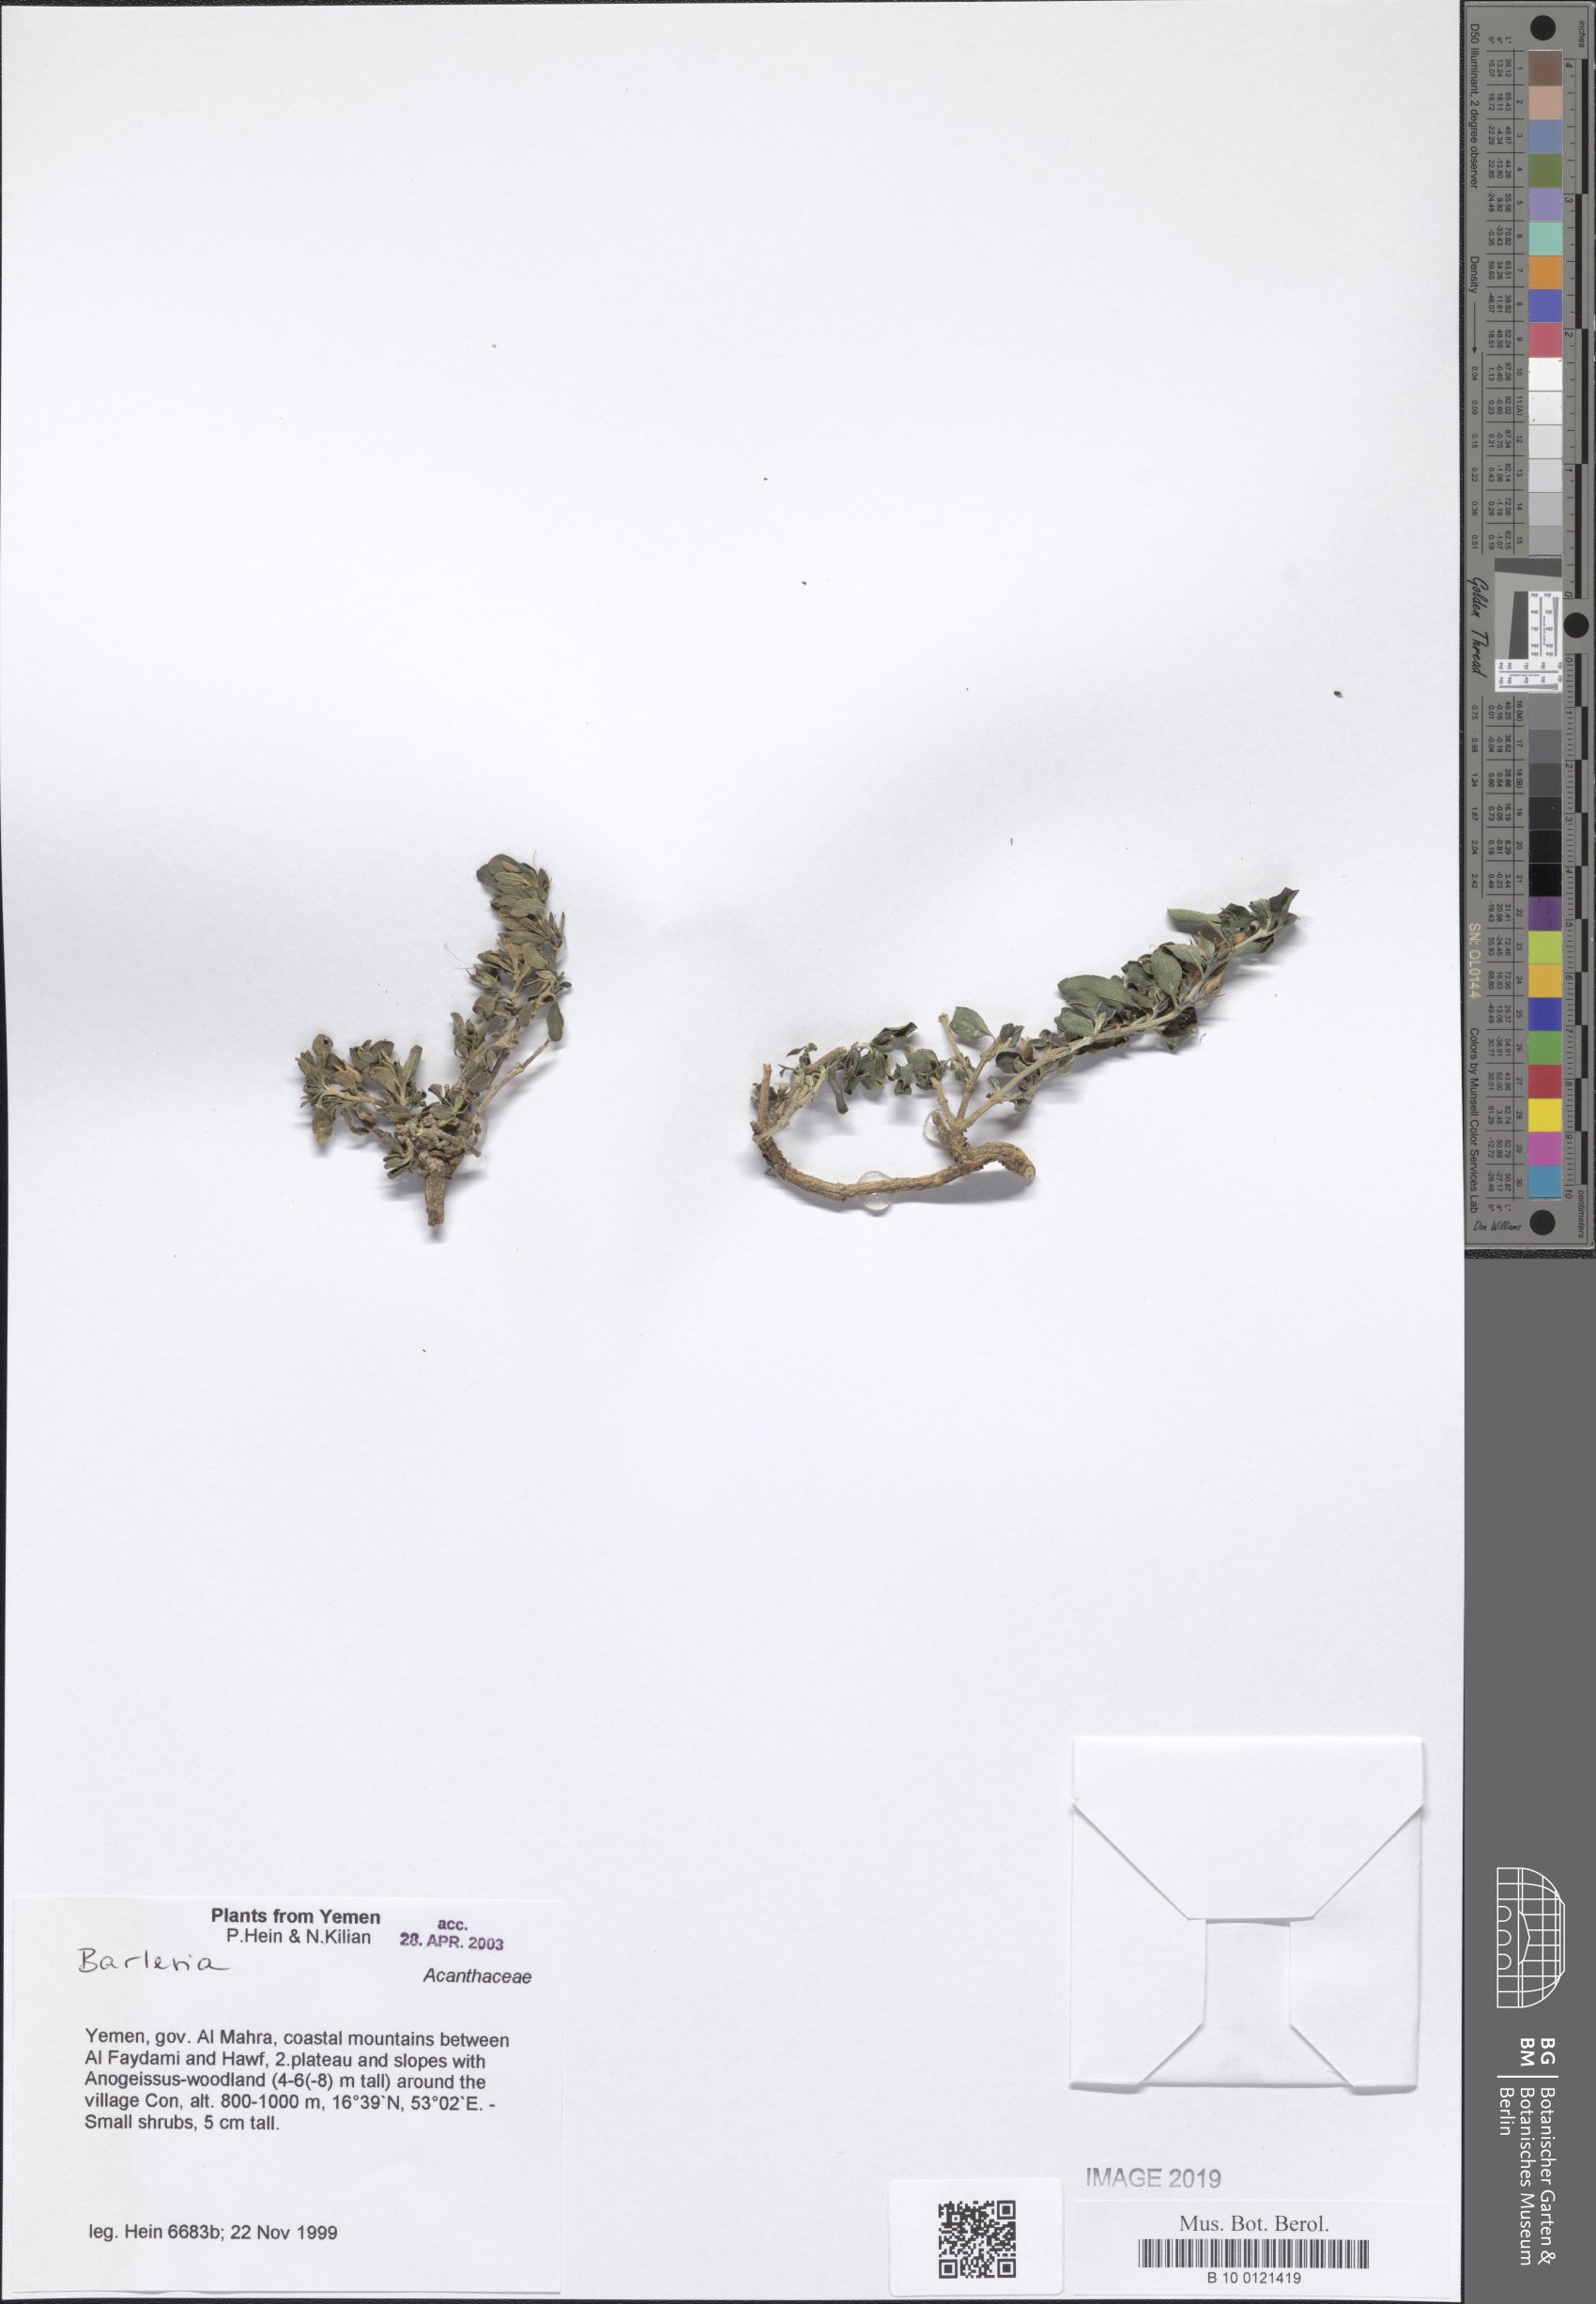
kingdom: Plantae
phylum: Tracheophyta
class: Magnoliopsida
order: Lamiales
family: Acanthaceae
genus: Barleria
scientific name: Barleria
